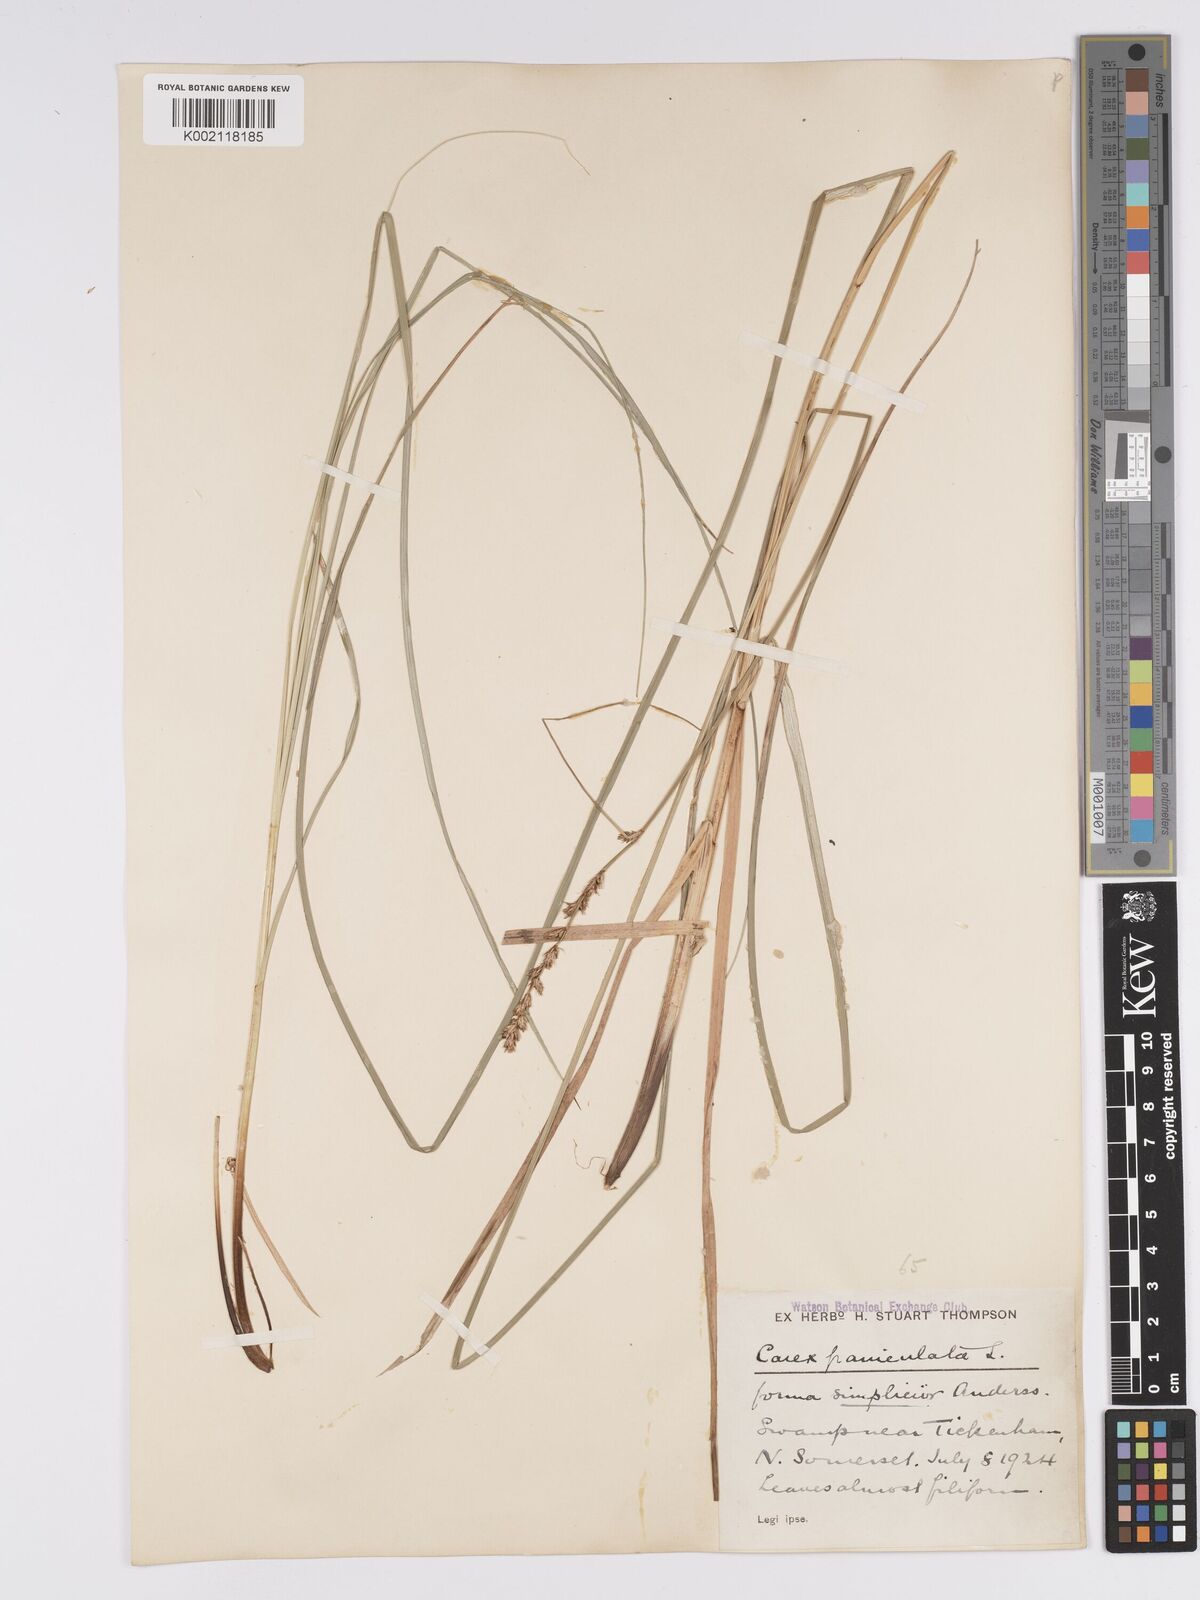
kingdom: Plantae
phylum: Tracheophyta
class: Liliopsida
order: Poales
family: Cyperaceae
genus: Carex
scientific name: Carex paniculata
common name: Greater tussock-sedge
